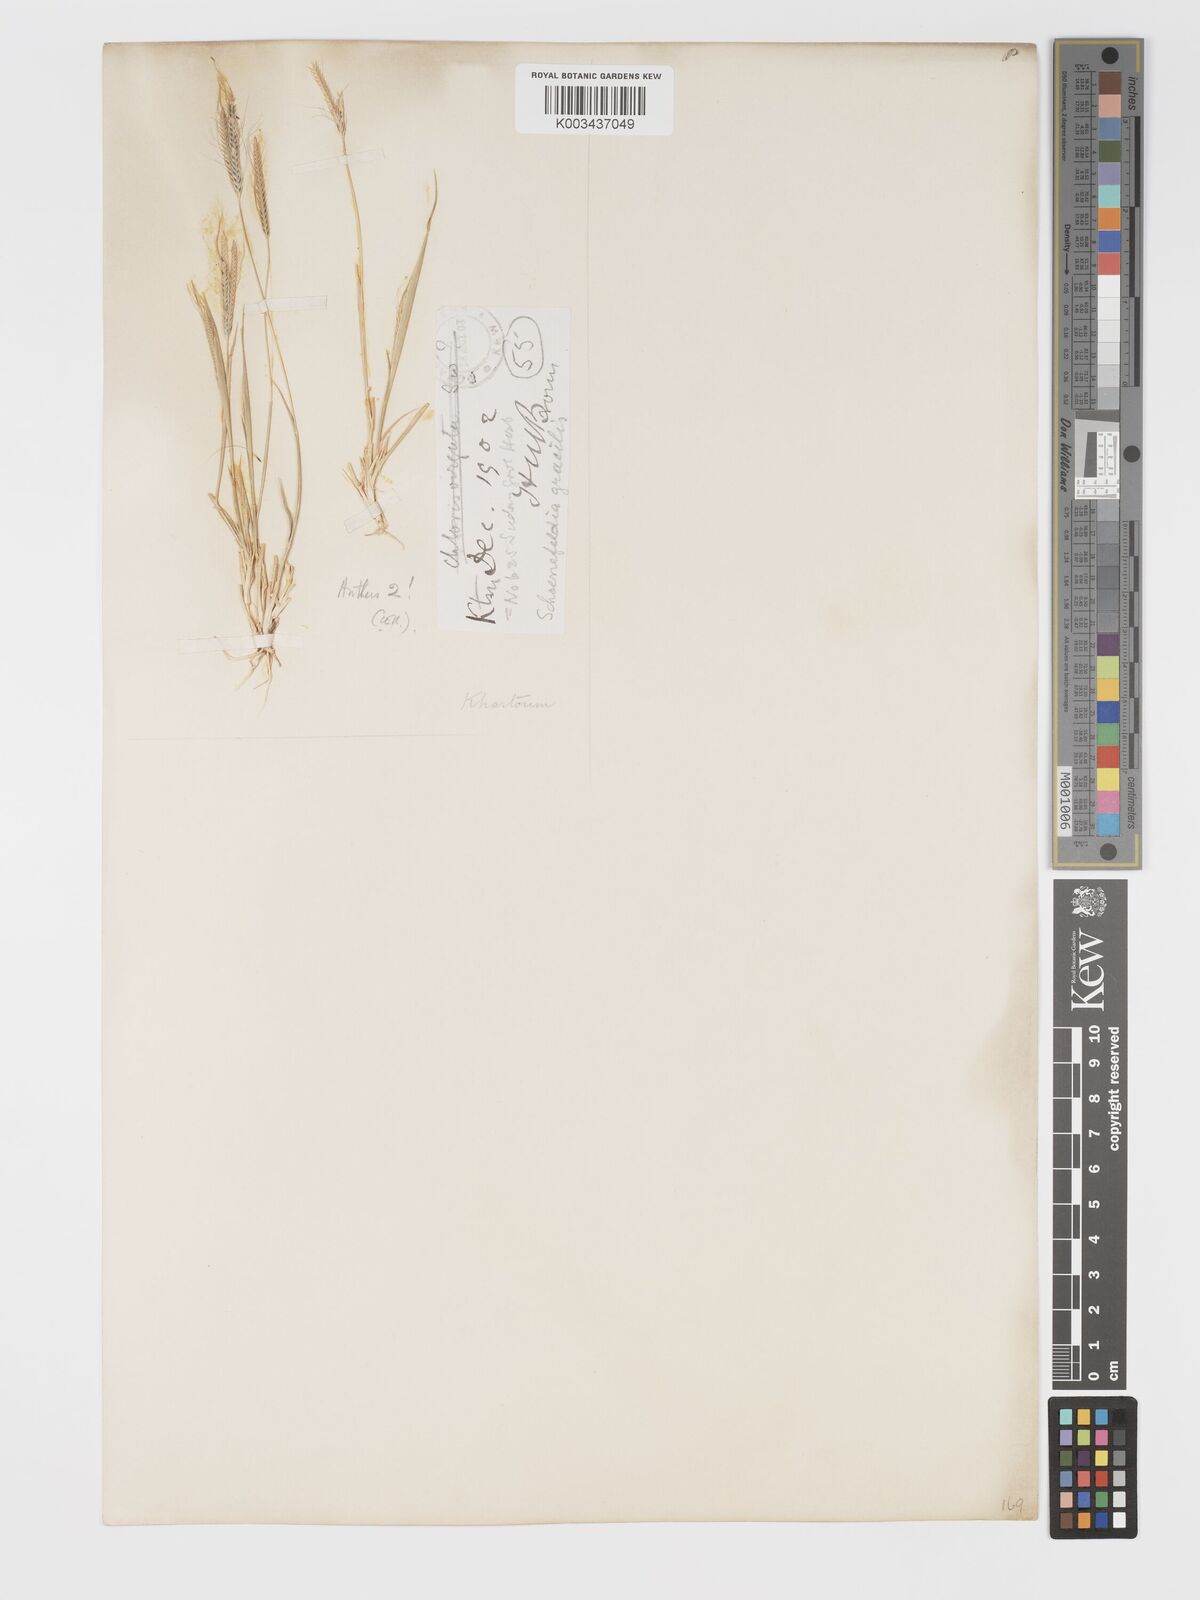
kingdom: Plantae
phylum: Tracheophyta
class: Liliopsida
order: Poales
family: Poaceae
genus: Schoenefeldia
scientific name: Schoenefeldia gracilis
